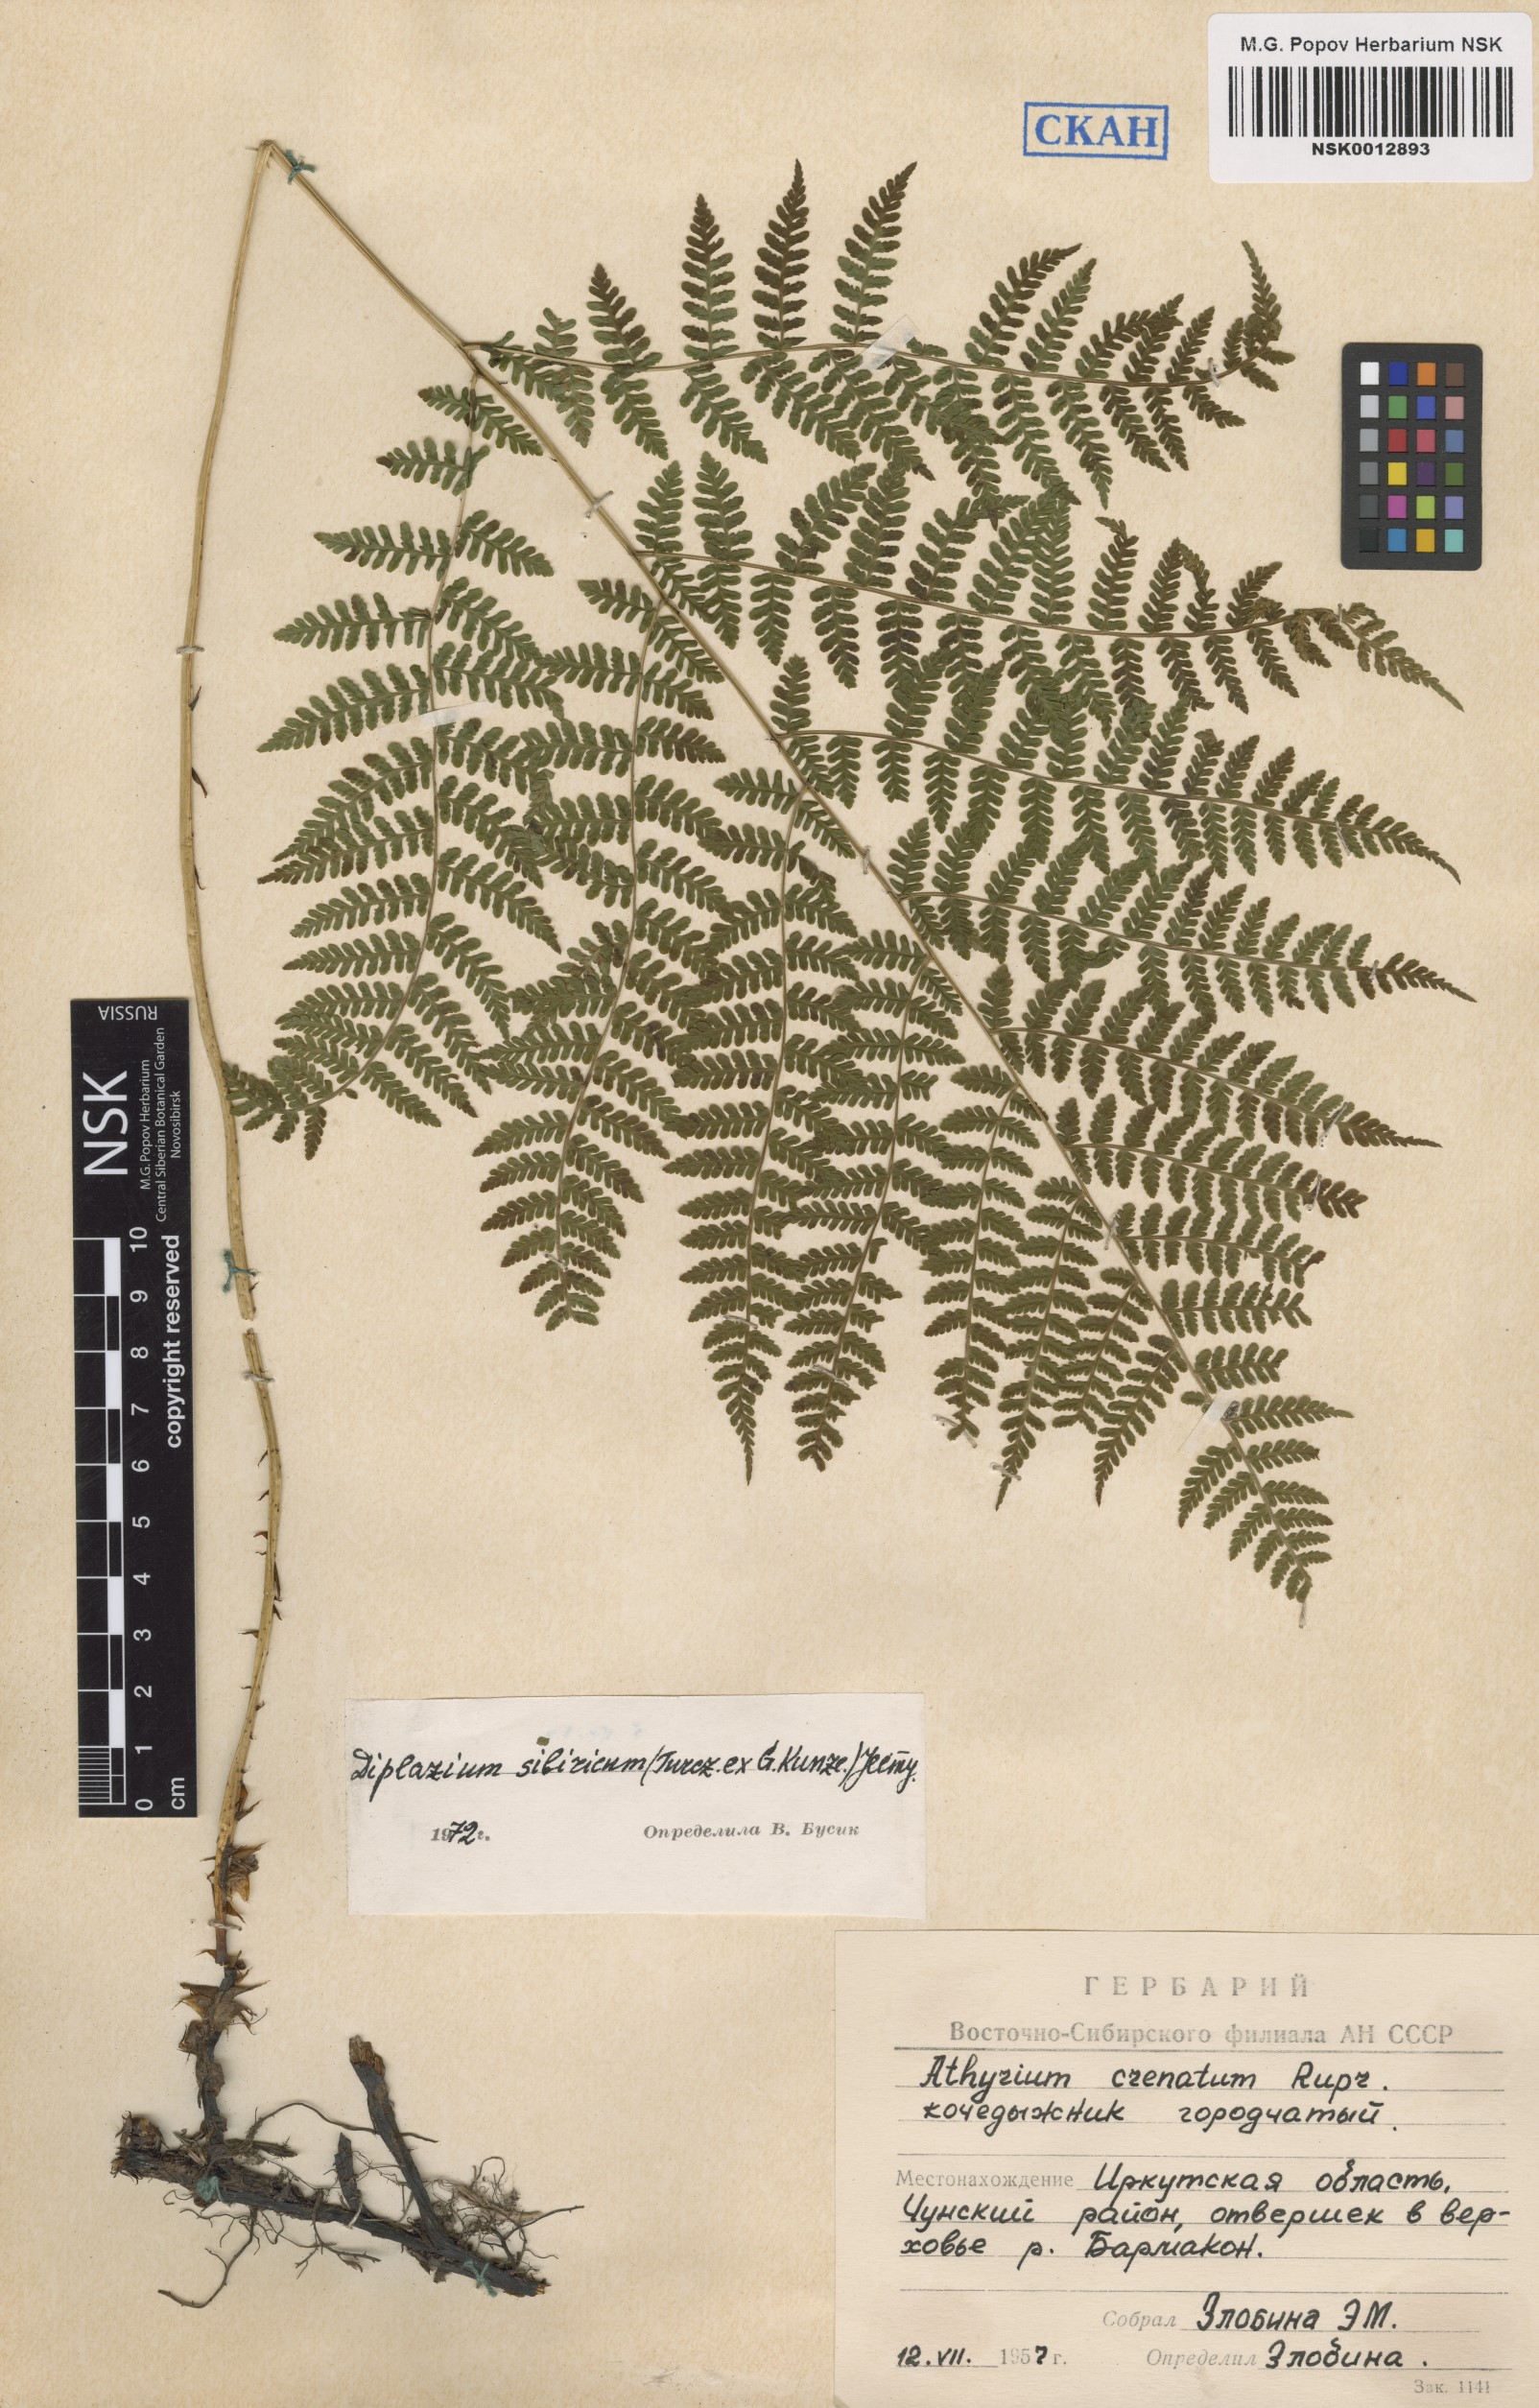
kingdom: Plantae
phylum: Tracheophyta
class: Polypodiopsida
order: Polypodiales
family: Athyriaceae
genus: Diplazium
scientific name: Diplazium sibiricum
